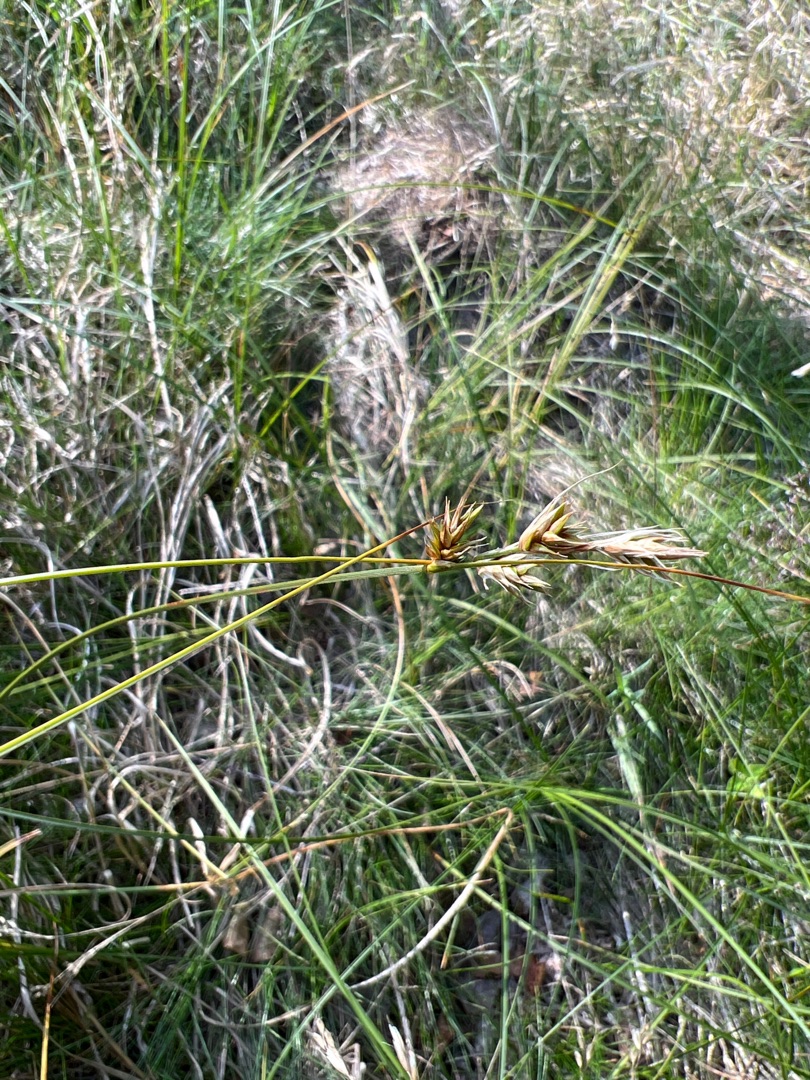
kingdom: Plantae
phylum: Tracheophyta
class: Liliopsida
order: Poales
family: Cyperaceae
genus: Carex
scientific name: Carex arenaria
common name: Sand-star
